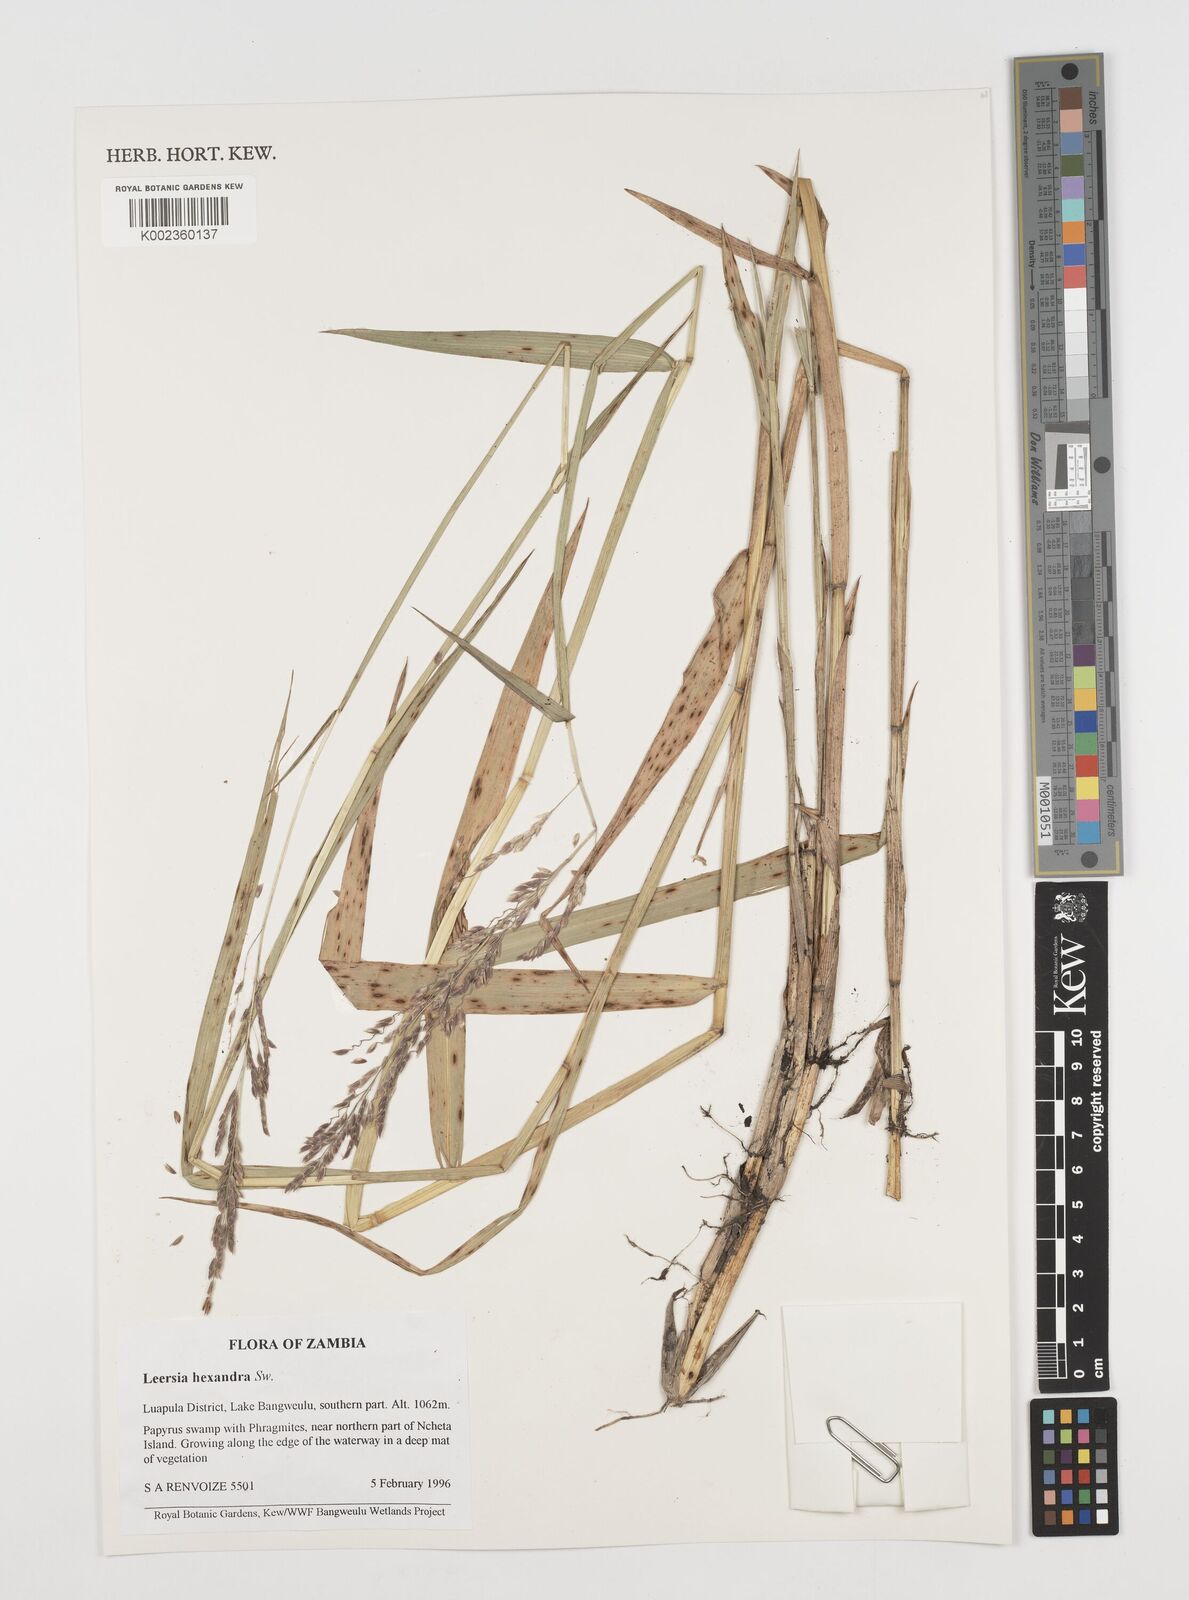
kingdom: Plantae
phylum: Tracheophyta
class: Liliopsida
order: Poales
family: Poaceae
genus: Leersia
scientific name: Leersia hexandra
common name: Southern cut grass
